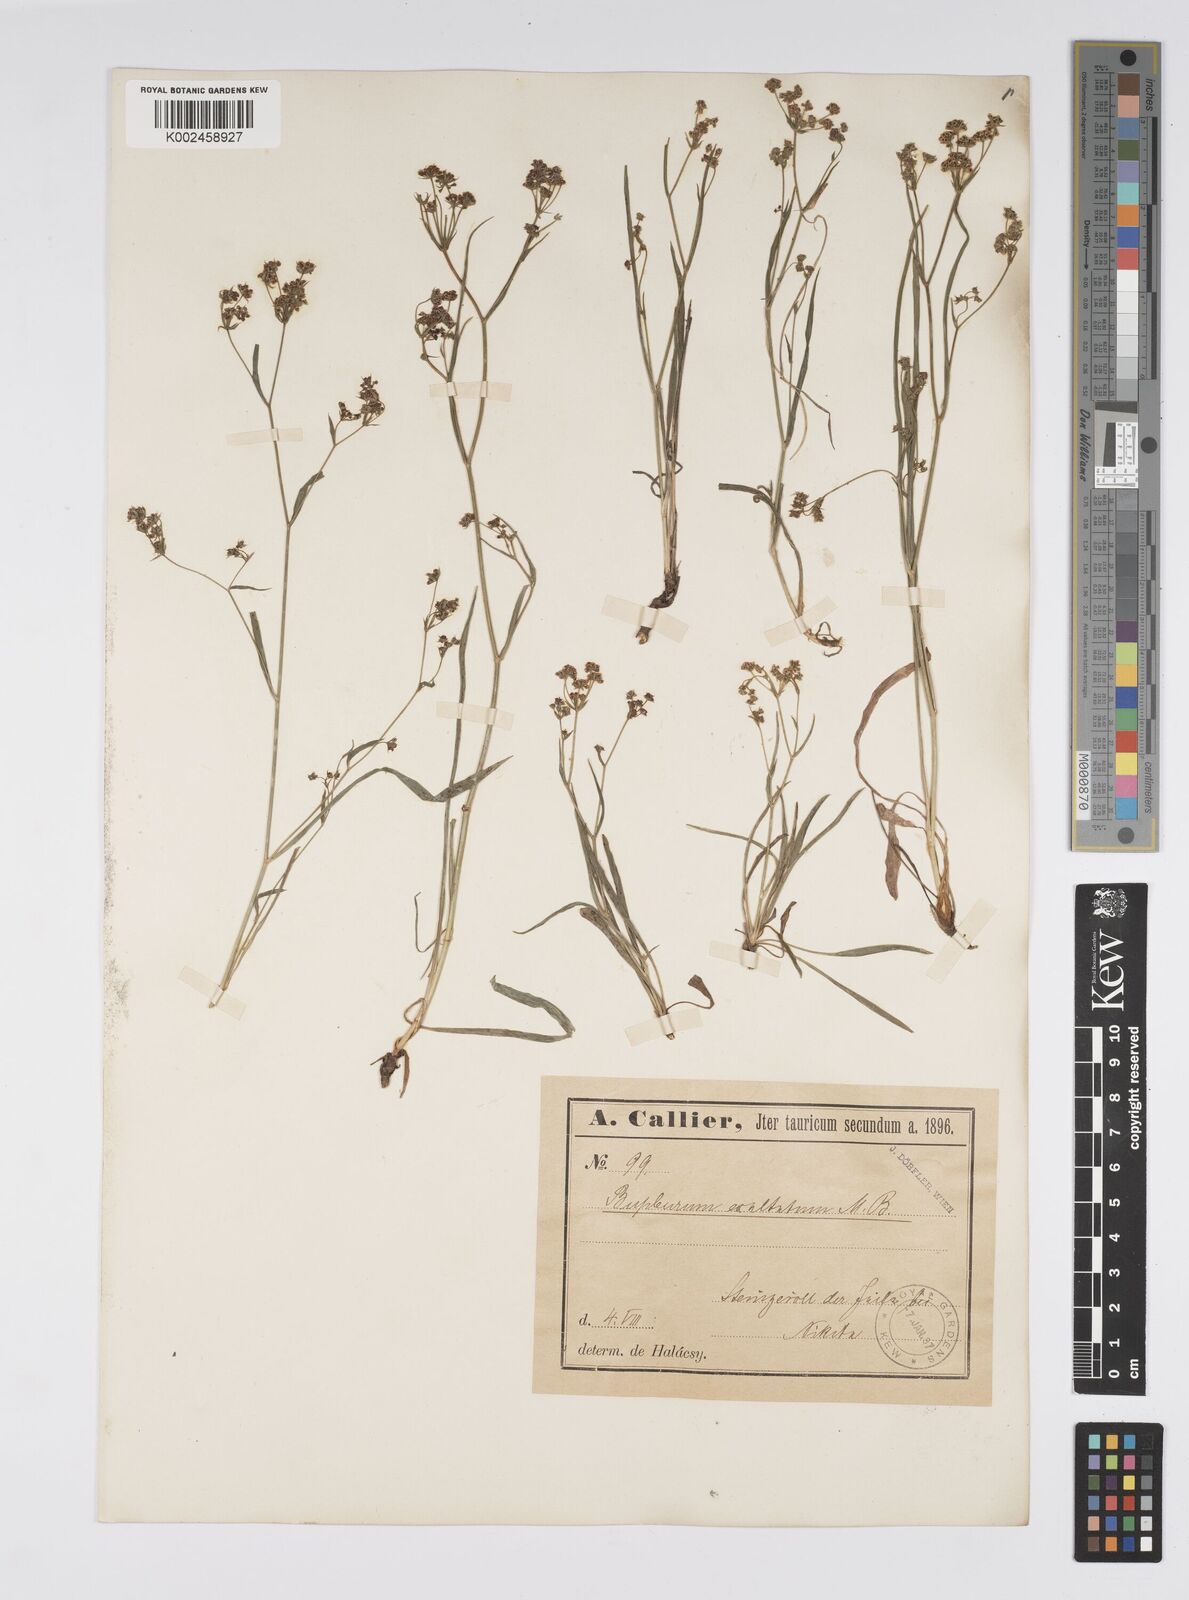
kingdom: Plantae
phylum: Tracheophyta
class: Magnoliopsida
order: Apiales
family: Apiaceae
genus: Bupleurum
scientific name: Bupleurum falcatum
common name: Sickle-leaved hare's-ear
